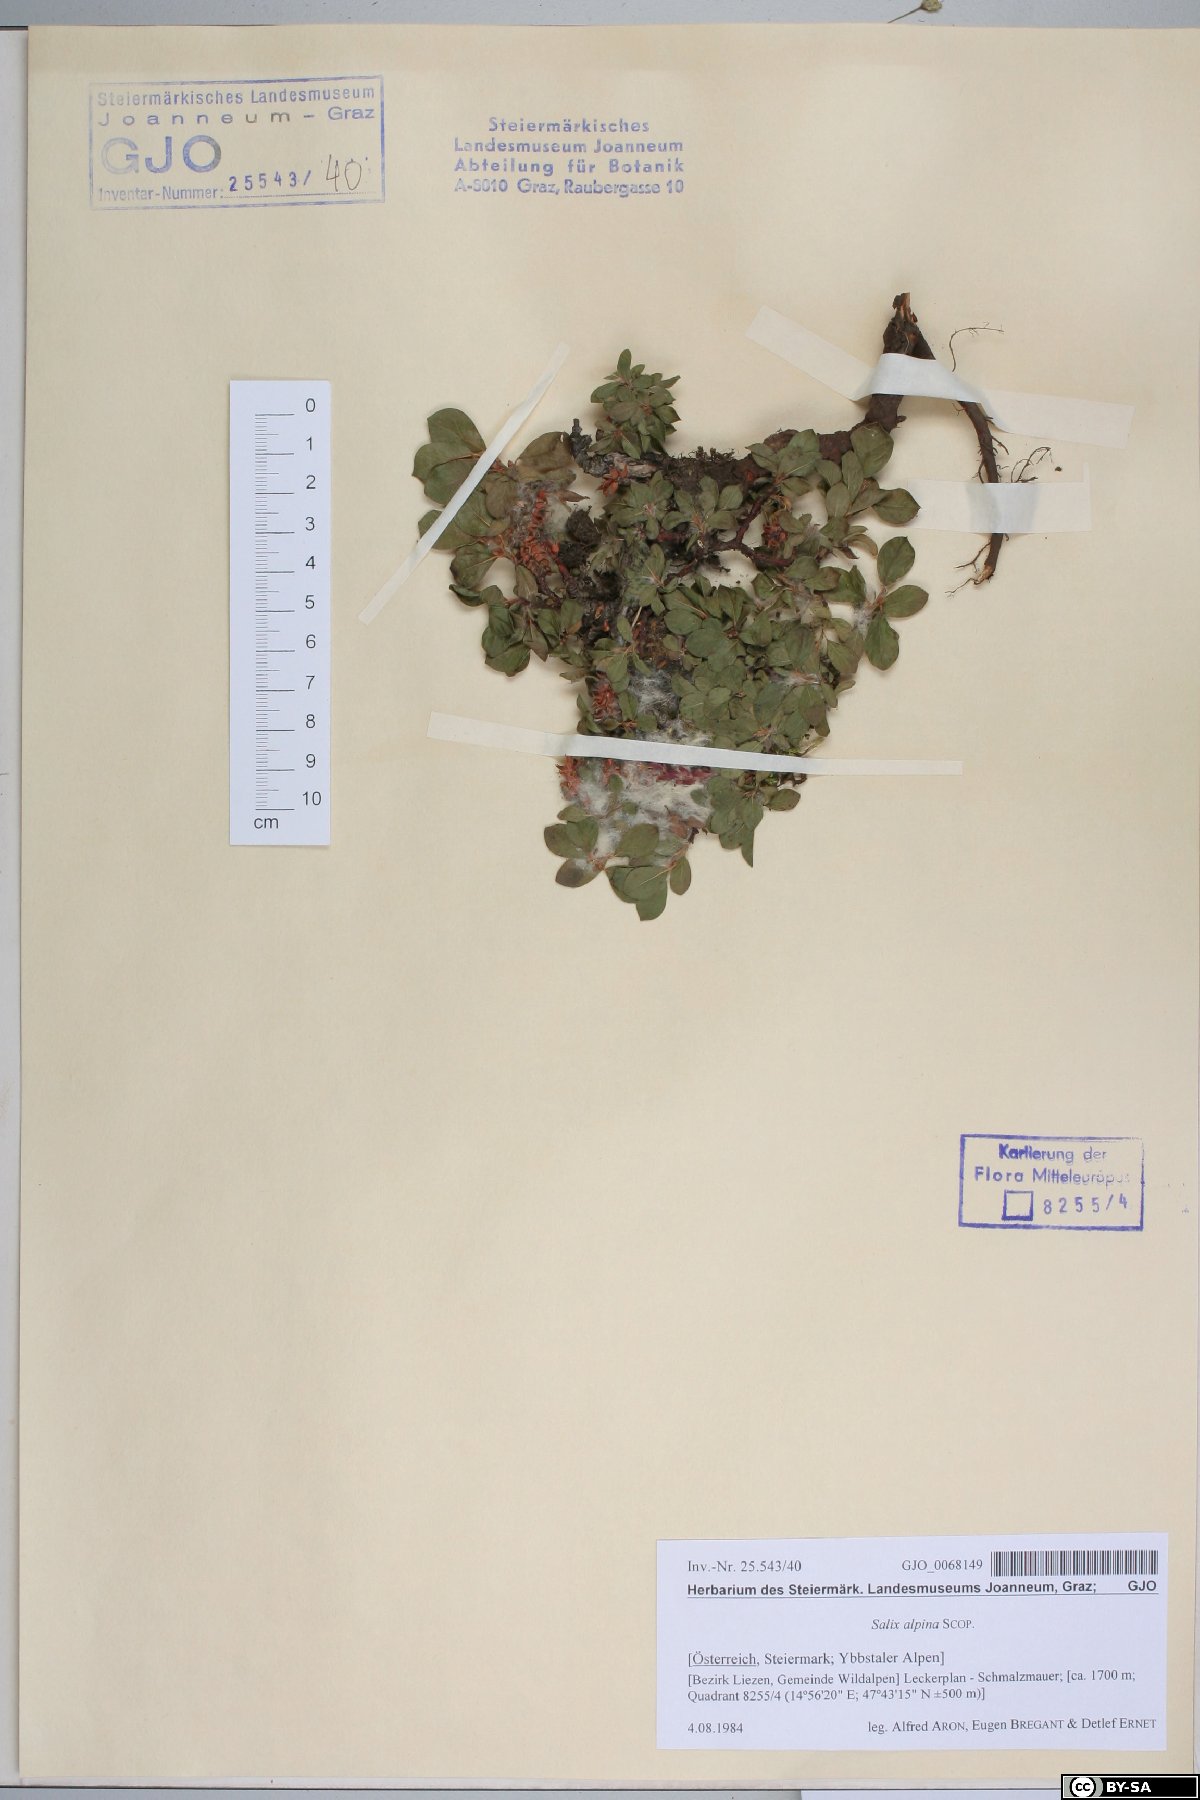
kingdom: Plantae
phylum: Tracheophyta
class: Magnoliopsida
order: Malpighiales
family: Salicaceae
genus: Salix
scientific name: Salix alpina
